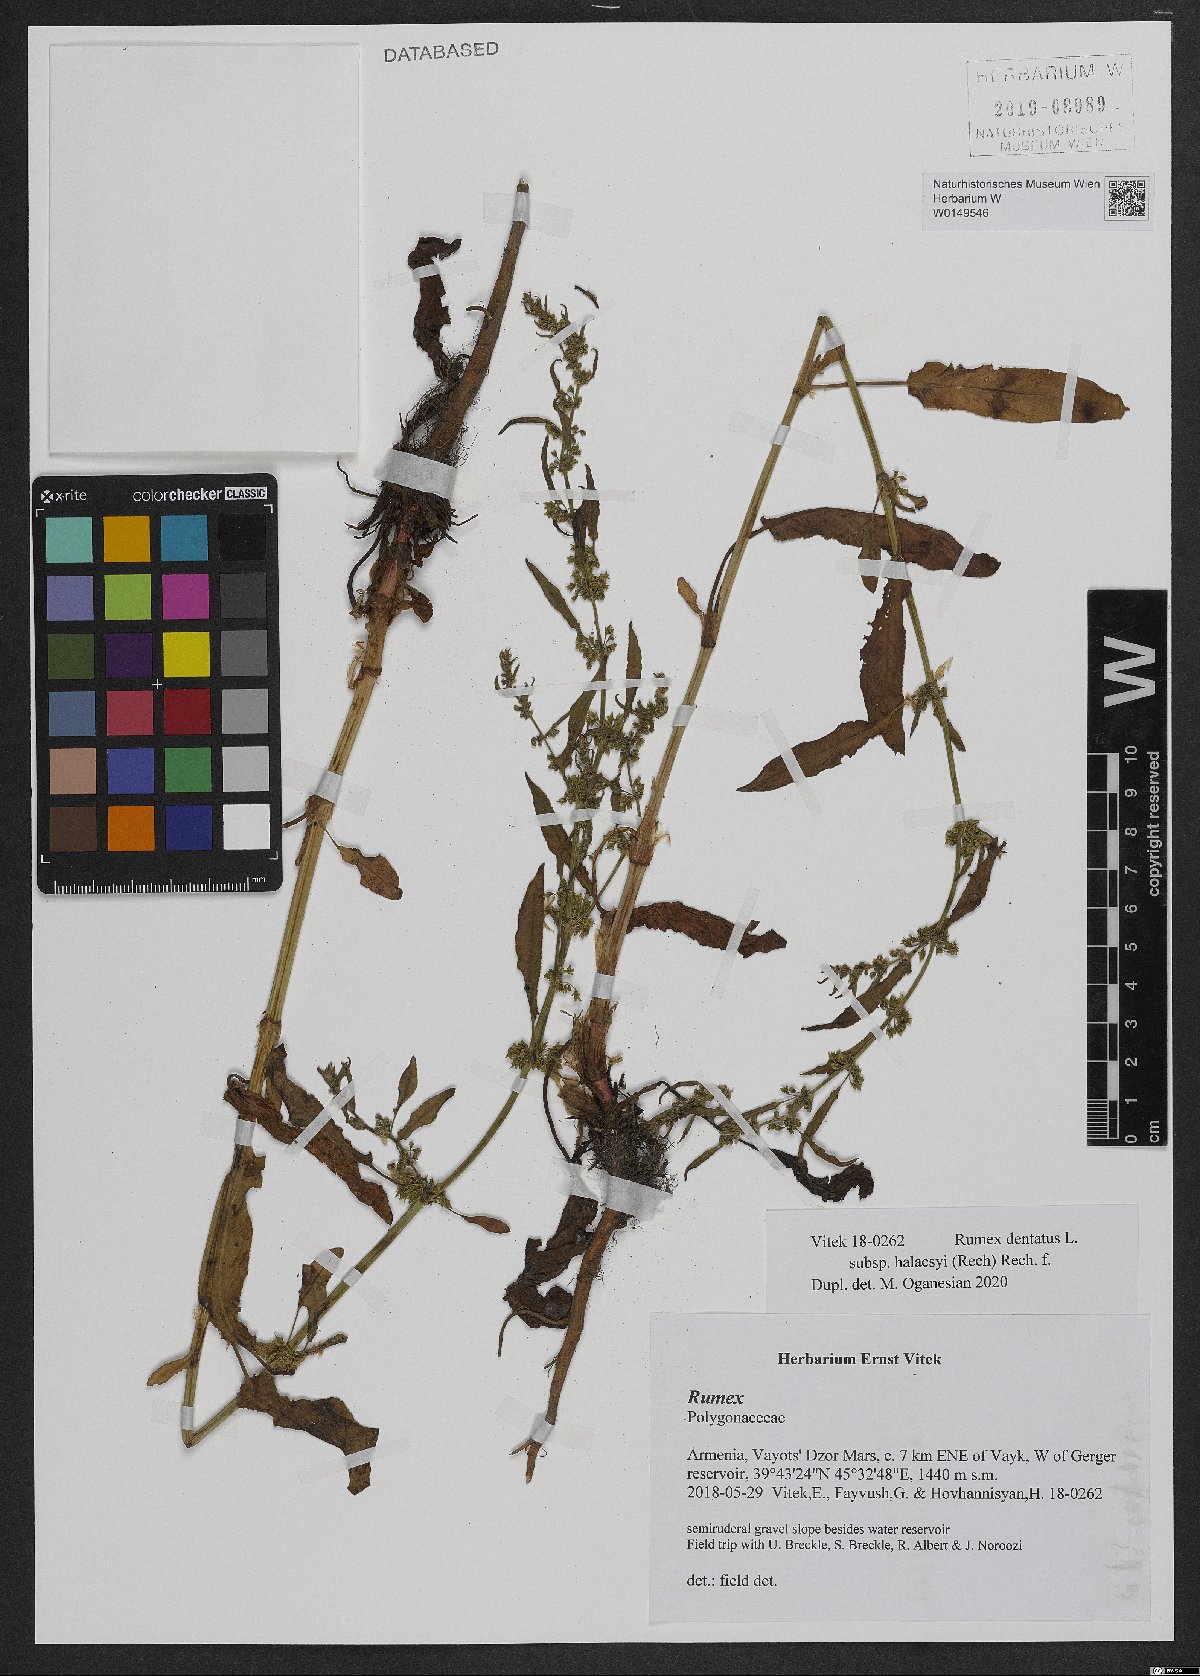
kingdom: Plantae
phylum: Tracheophyta
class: Magnoliopsida
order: Caryophyllales
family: Polygonaceae
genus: Rumex
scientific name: Rumex dentatus
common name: Toothed dock
